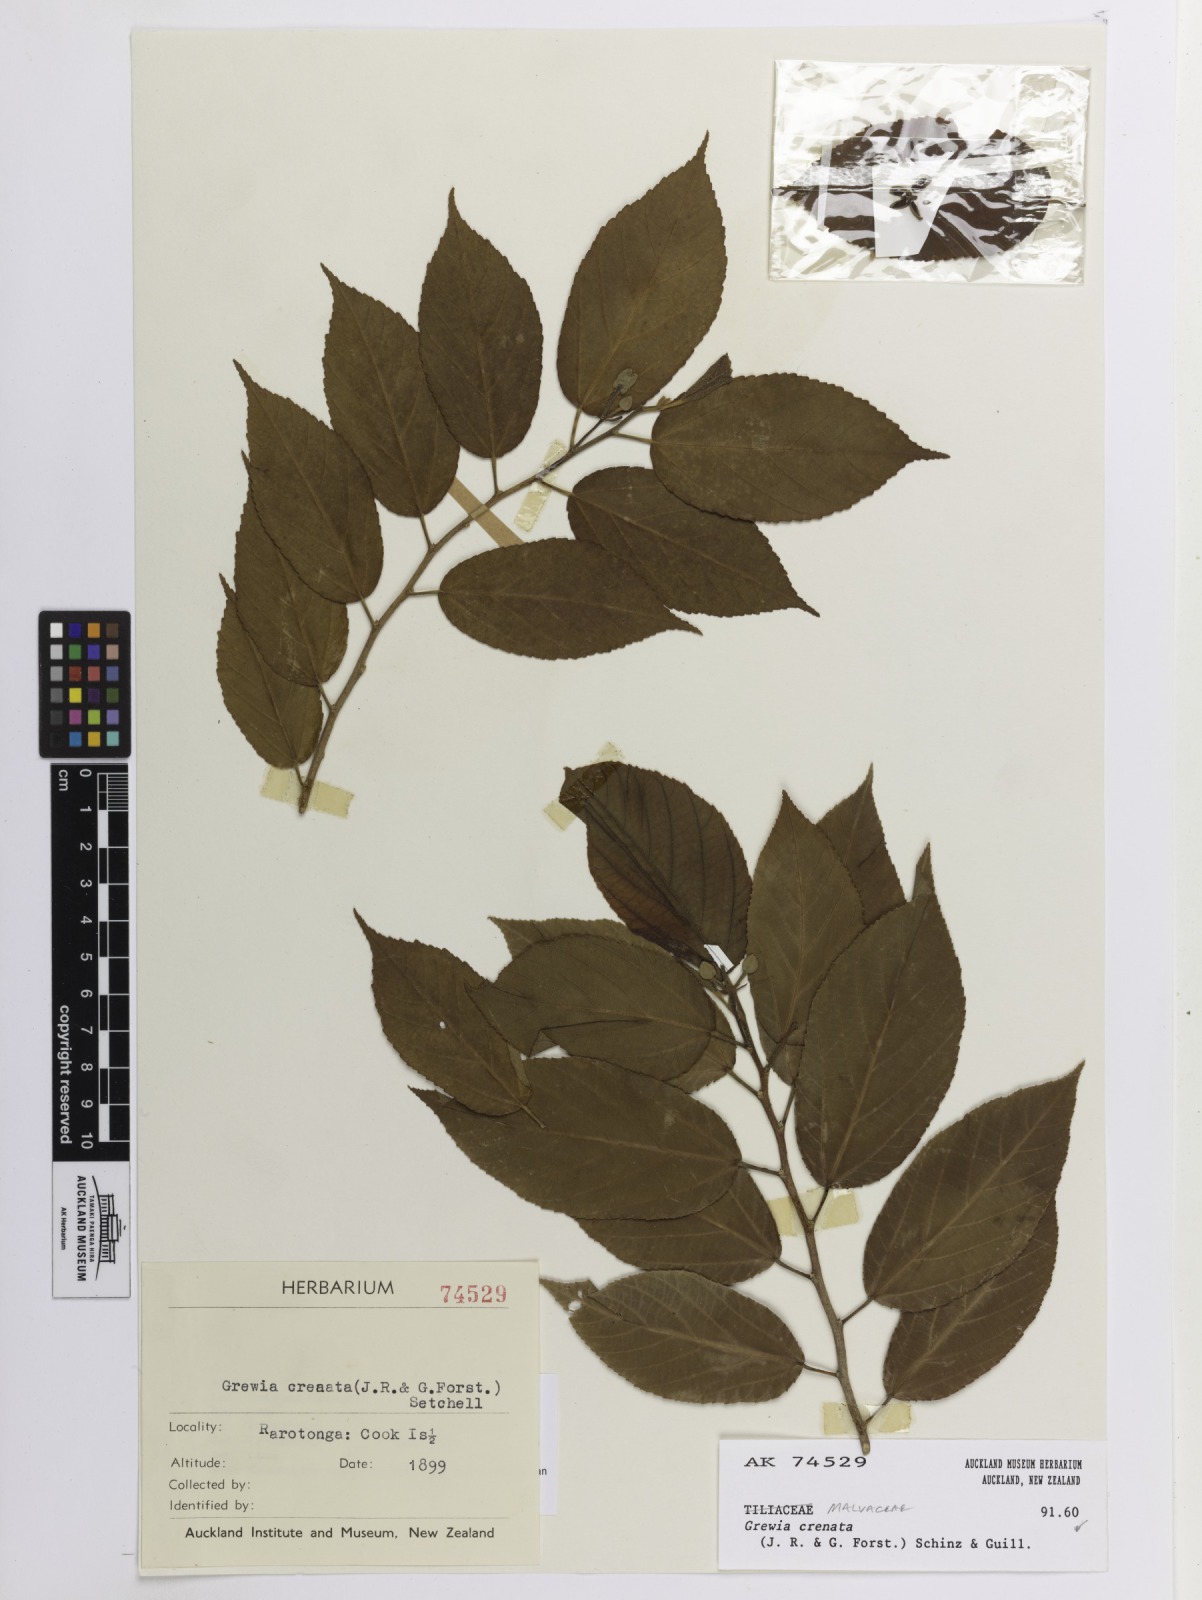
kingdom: Plantae
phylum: Tracheophyta
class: Magnoliopsida
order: Malvales
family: Malvaceae
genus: Grewia
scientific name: Grewia crenata
